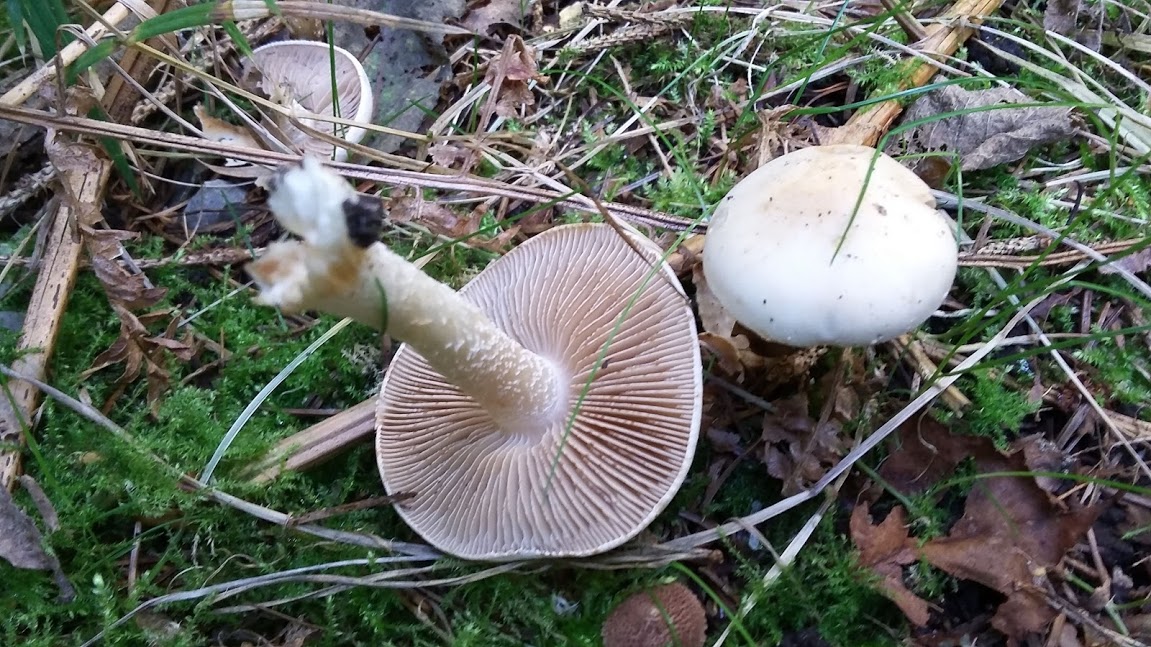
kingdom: Fungi
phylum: Basidiomycota
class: Agaricomycetes
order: Agaricales
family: Hymenogastraceae
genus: Hebeloma
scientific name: Hebeloma
